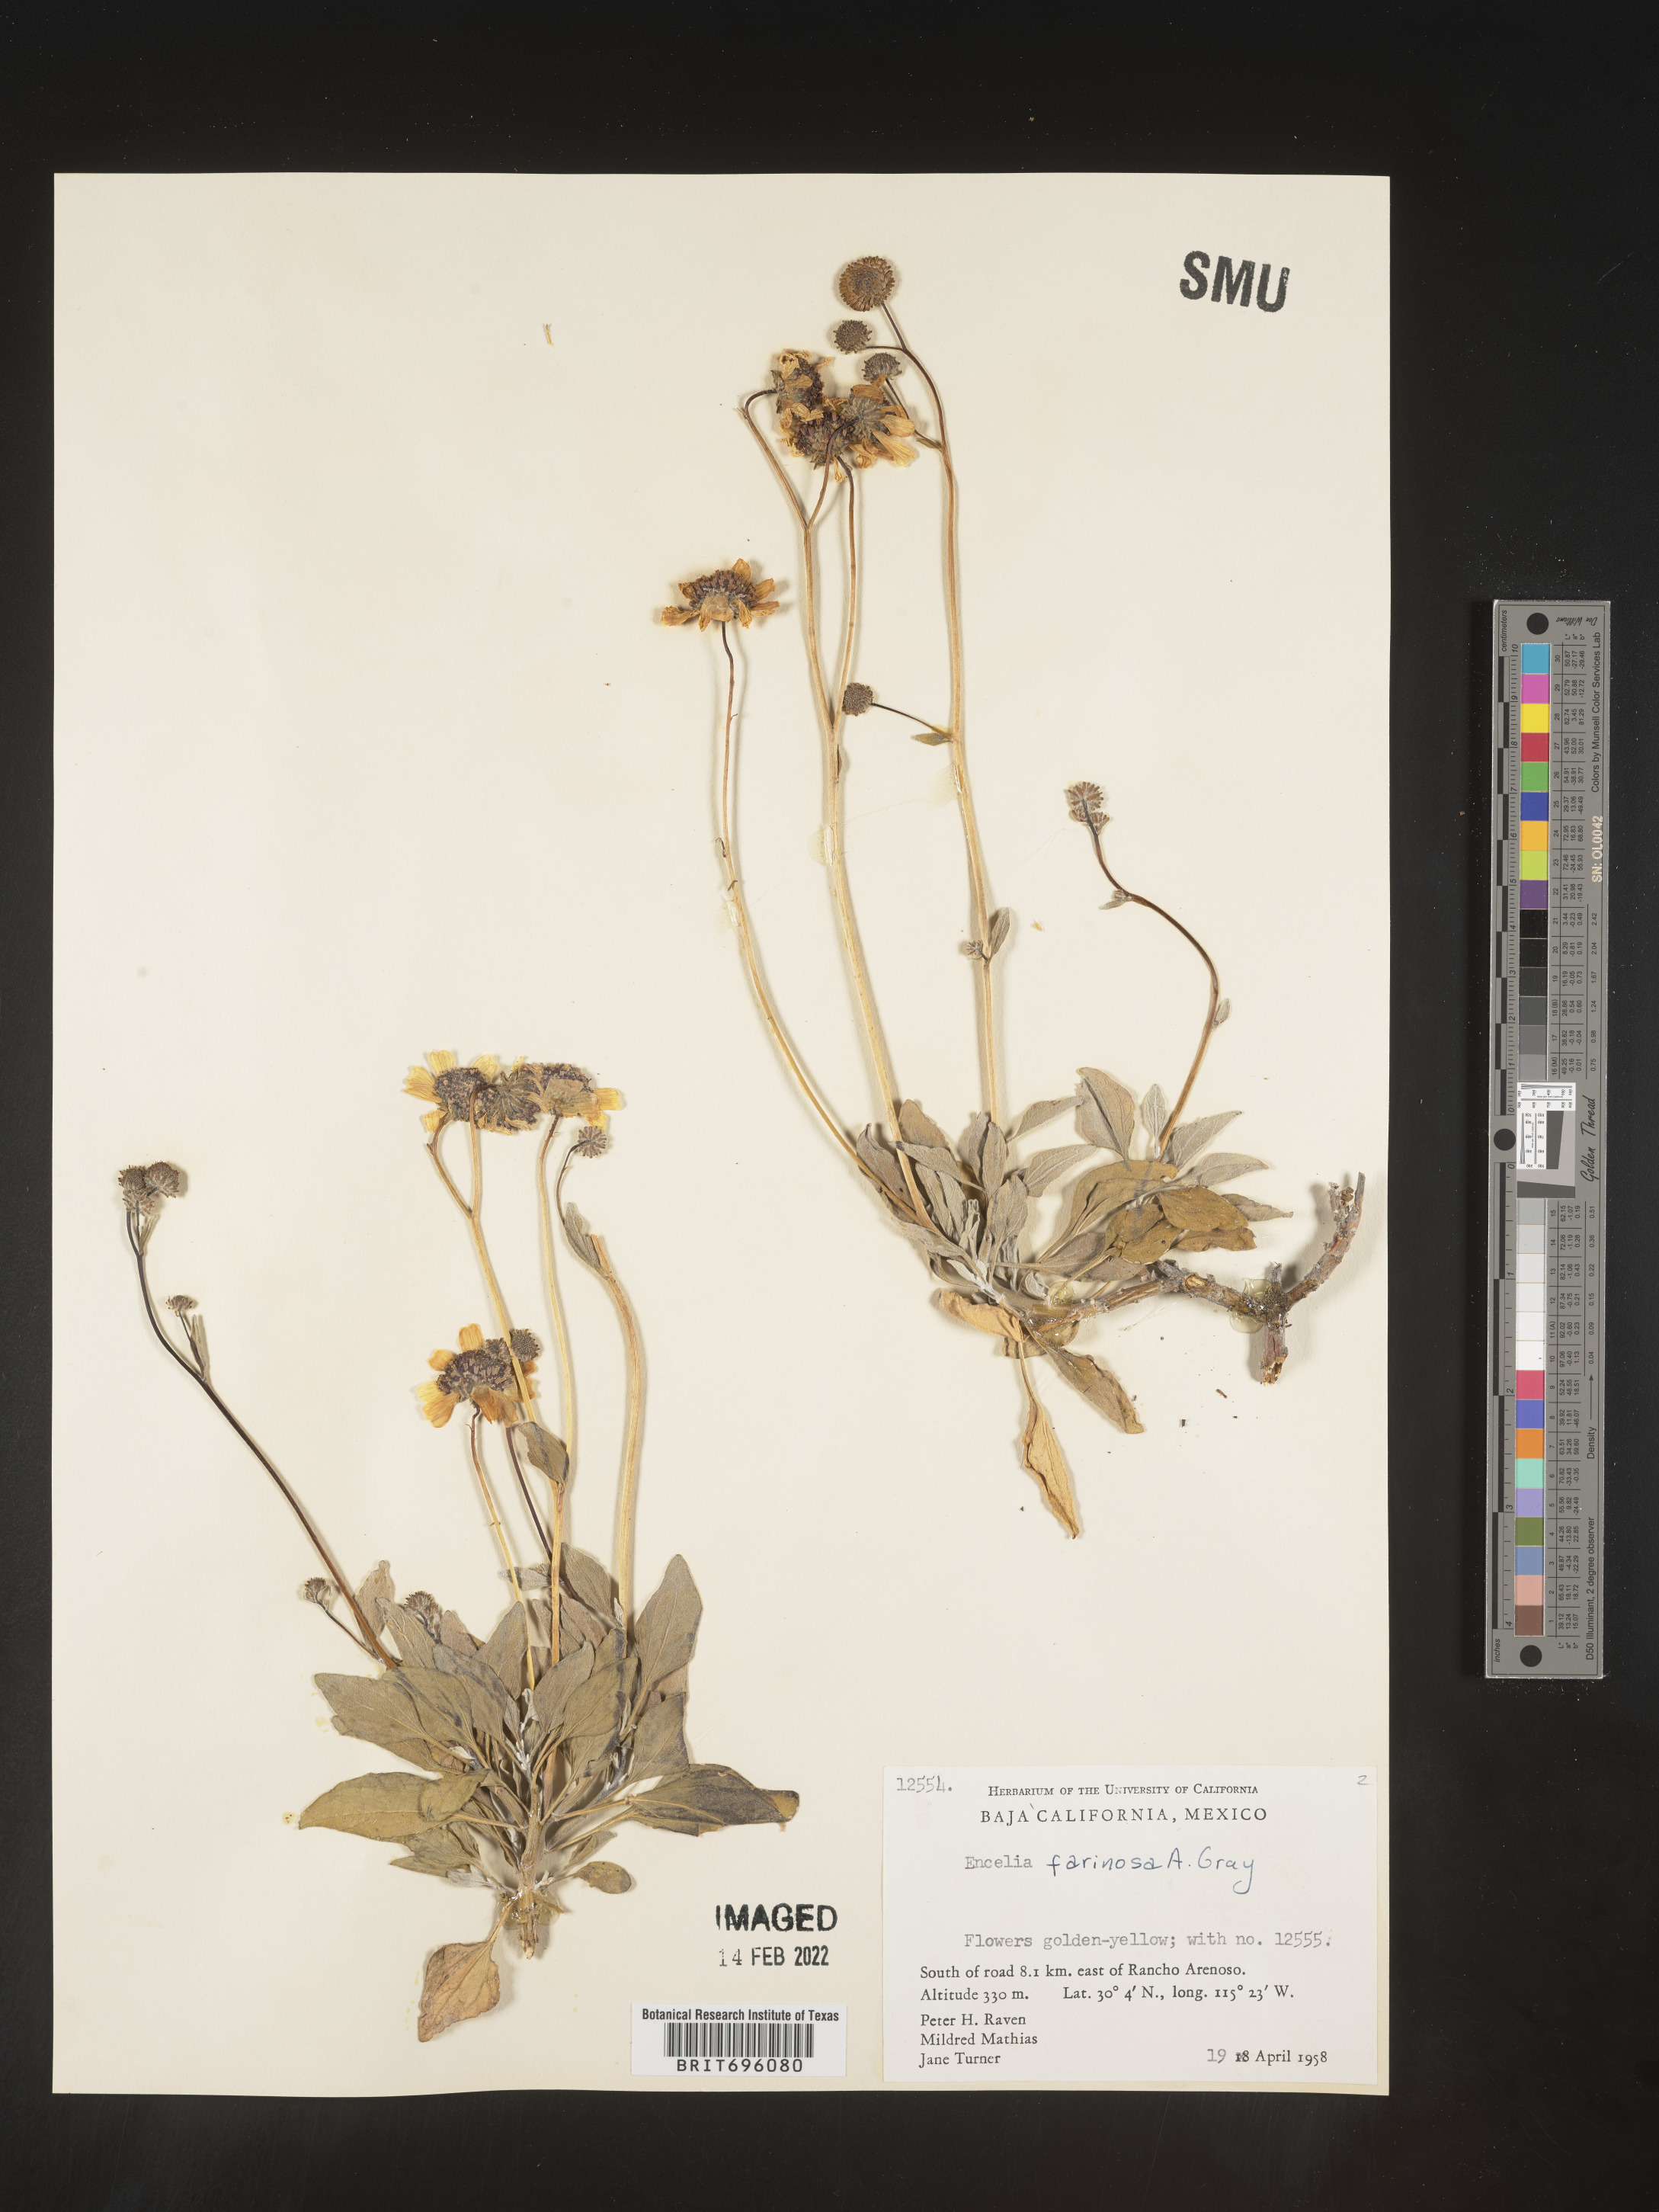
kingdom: Plantae
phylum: Tracheophyta
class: Magnoliopsida
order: Asterales
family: Asteraceae
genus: Encelia
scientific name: Encelia
